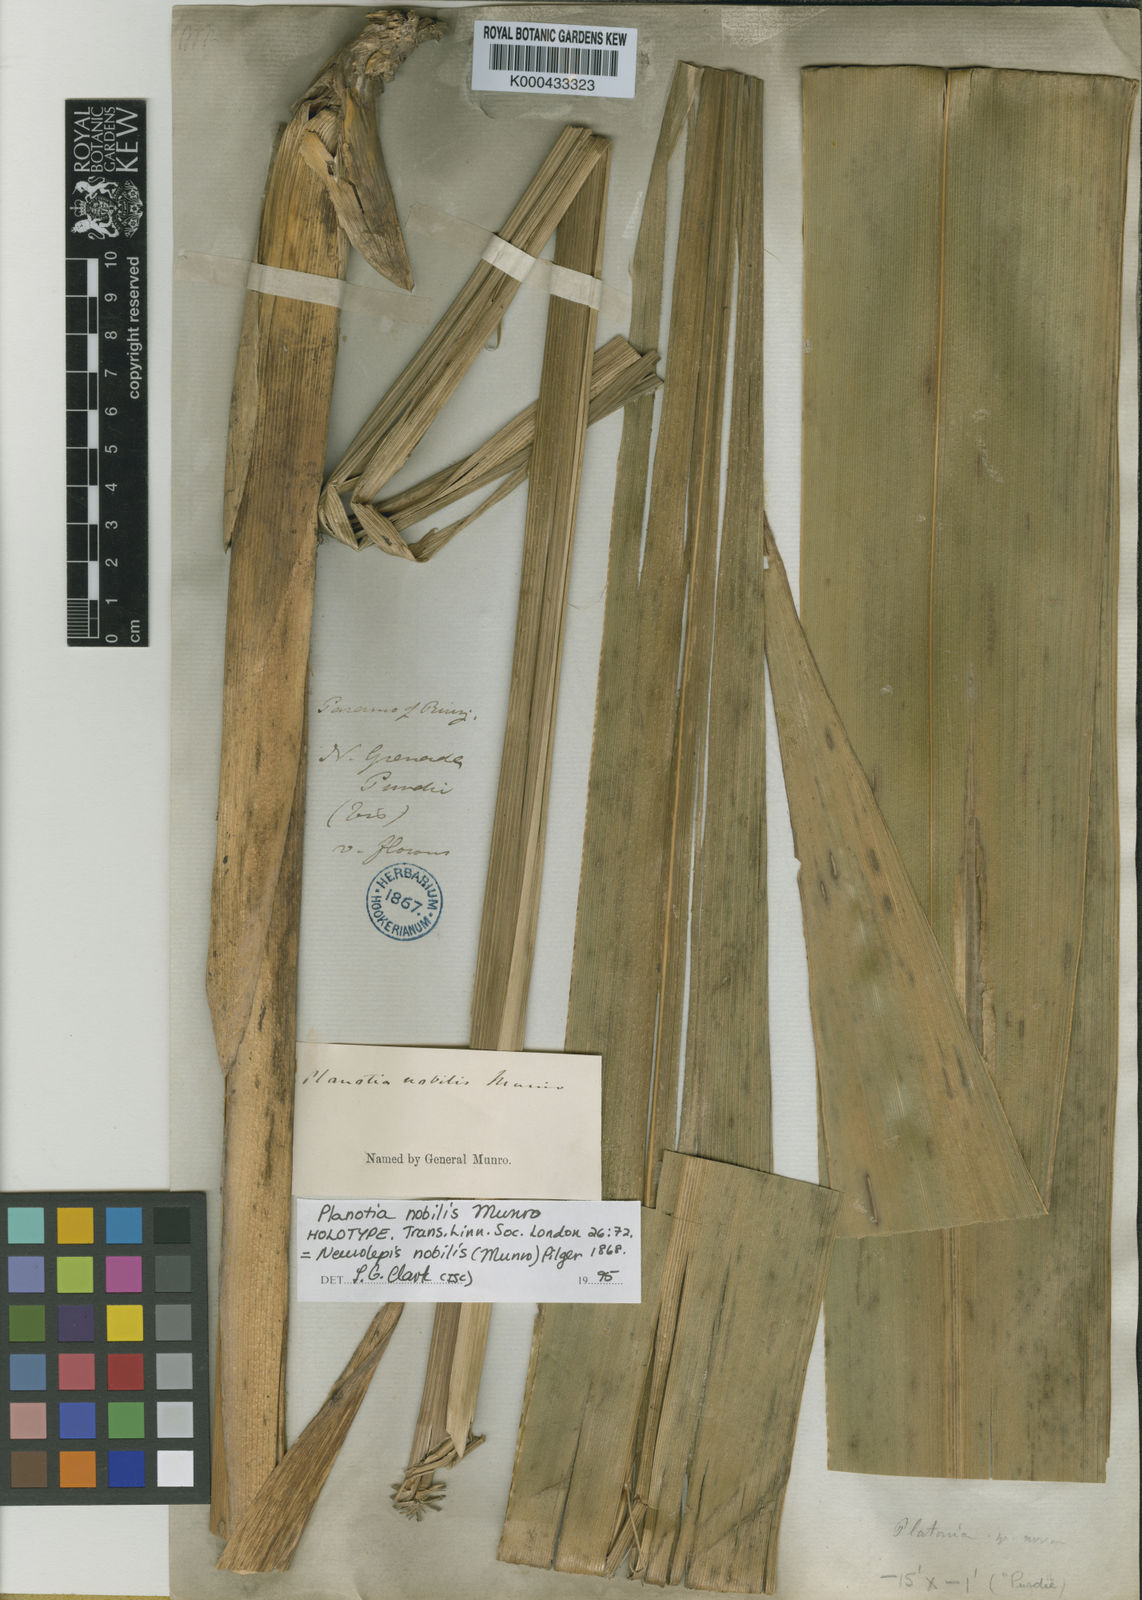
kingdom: Plantae
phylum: Tracheophyta
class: Liliopsida
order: Poales
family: Poaceae
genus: Chusquea
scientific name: Chusquea nobilis
